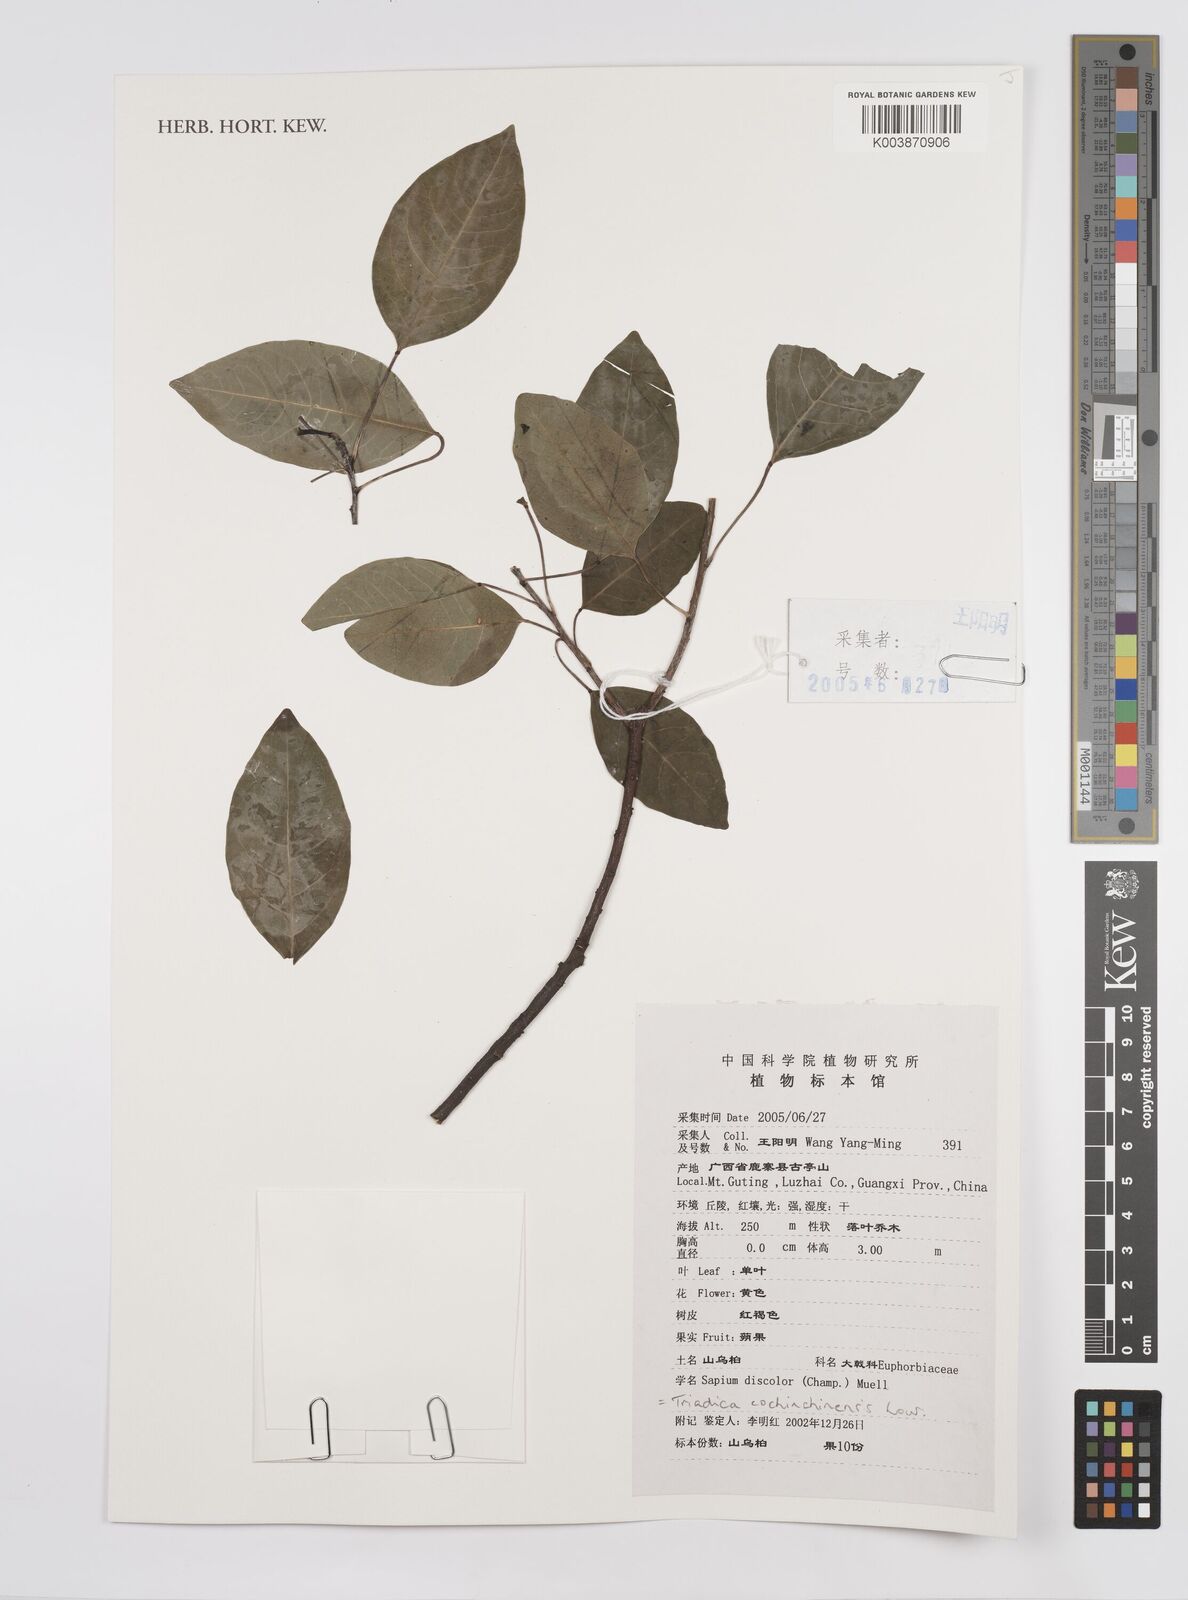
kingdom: Plantae
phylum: Tracheophyta
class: Magnoliopsida
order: Malpighiales
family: Euphorbiaceae
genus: Triadica
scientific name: Triadica cochinchinensis
